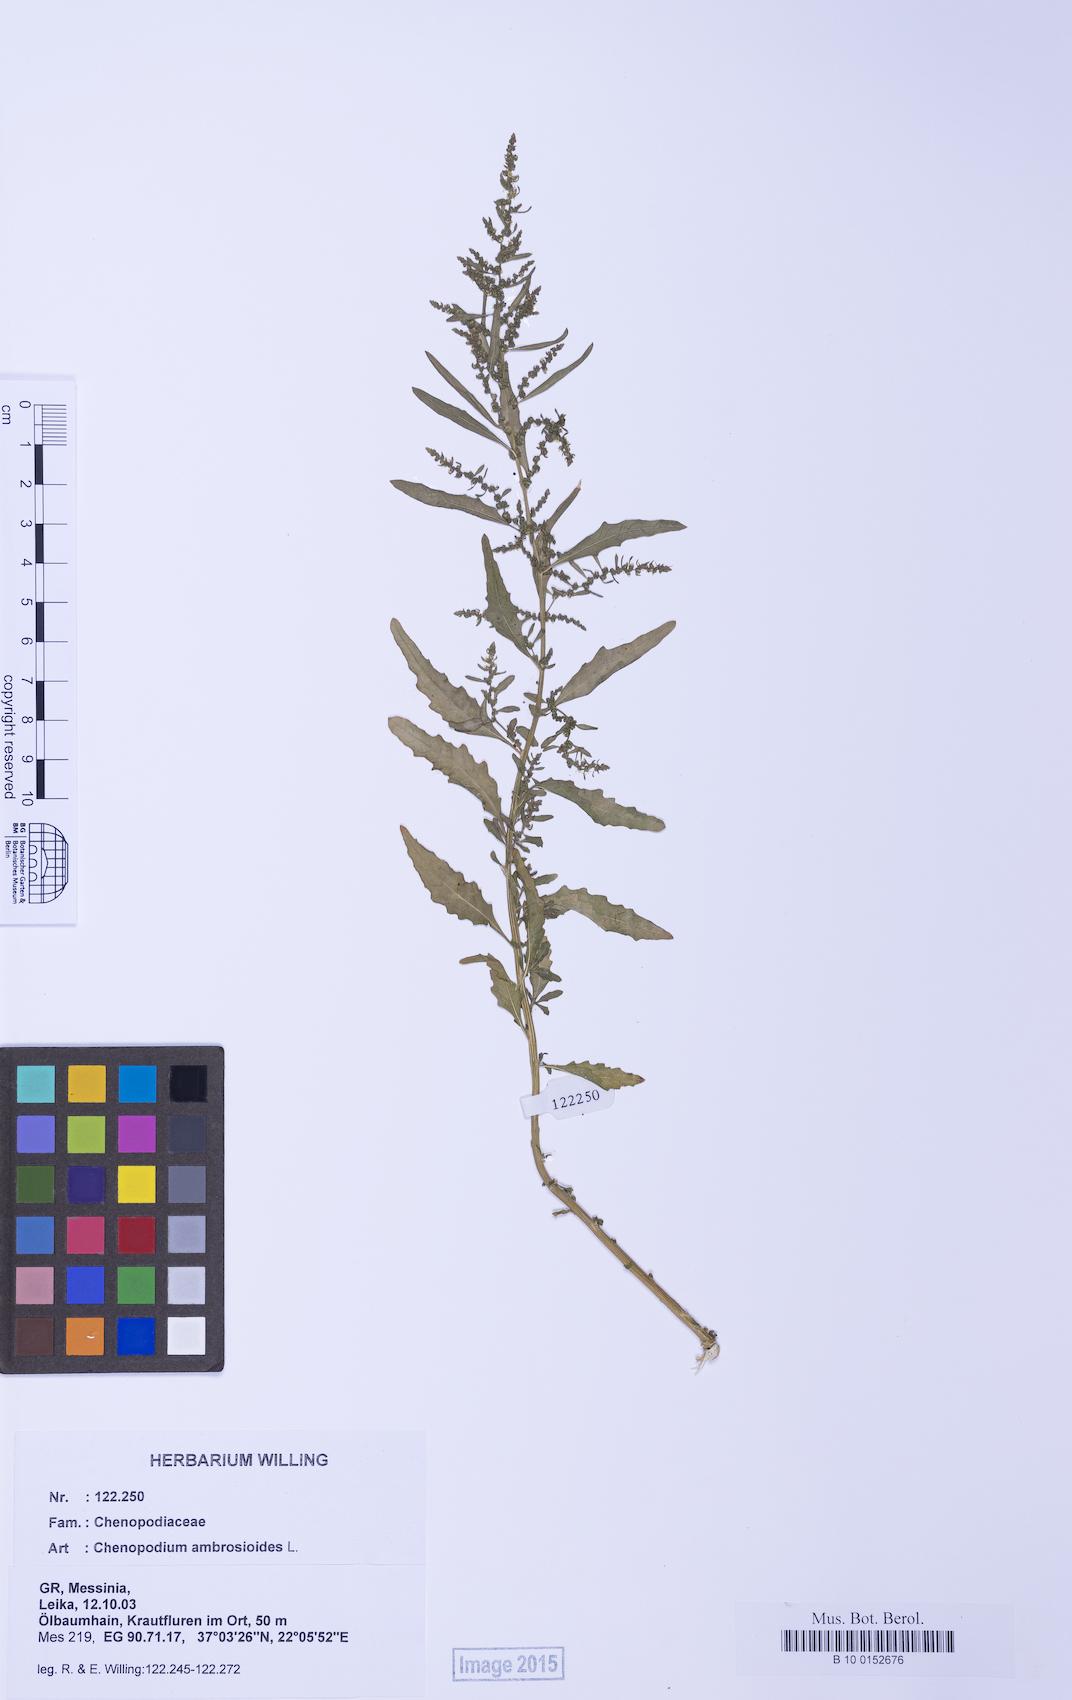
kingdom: Plantae
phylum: Tracheophyta
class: Magnoliopsida
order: Caryophyllales
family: Amaranthaceae
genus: Dysphania
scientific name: Dysphania ambrosioides
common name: Wormseed
